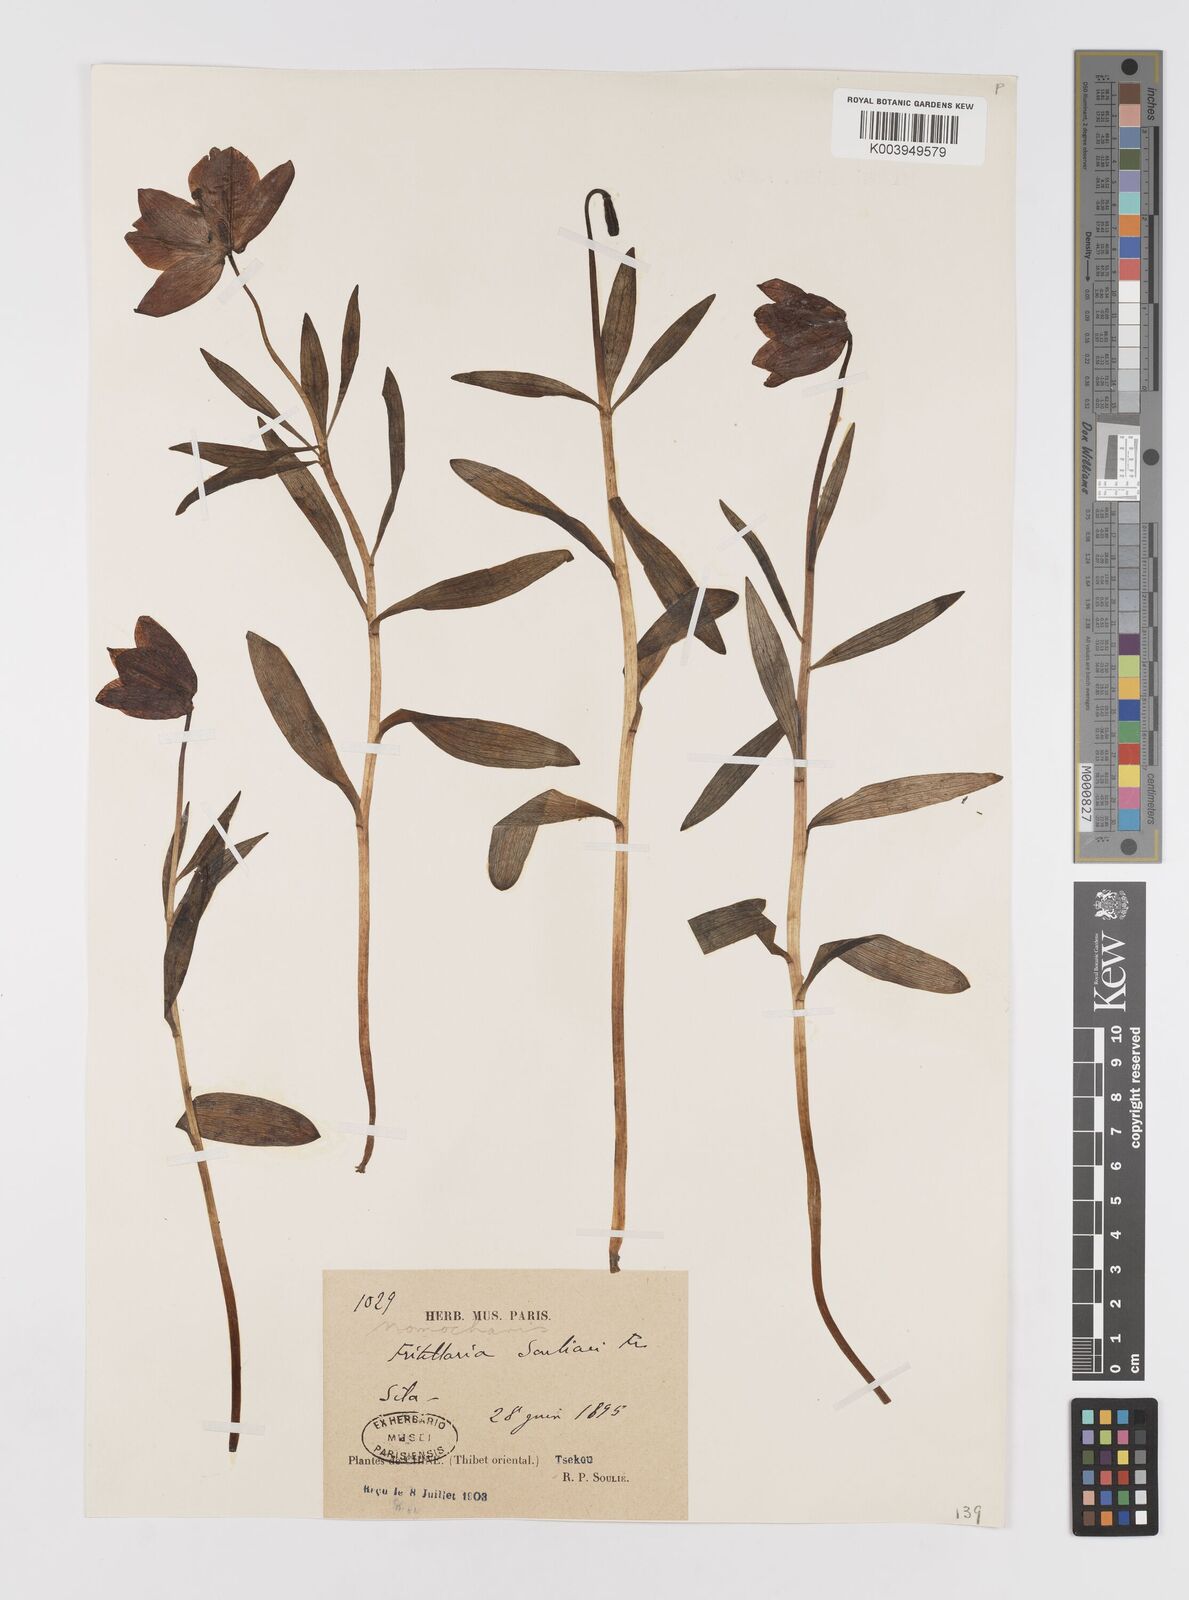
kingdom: Plantae
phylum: Tracheophyta
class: Liliopsida
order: Liliales
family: Liliaceae
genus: Lilium
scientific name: Lilium souliei
